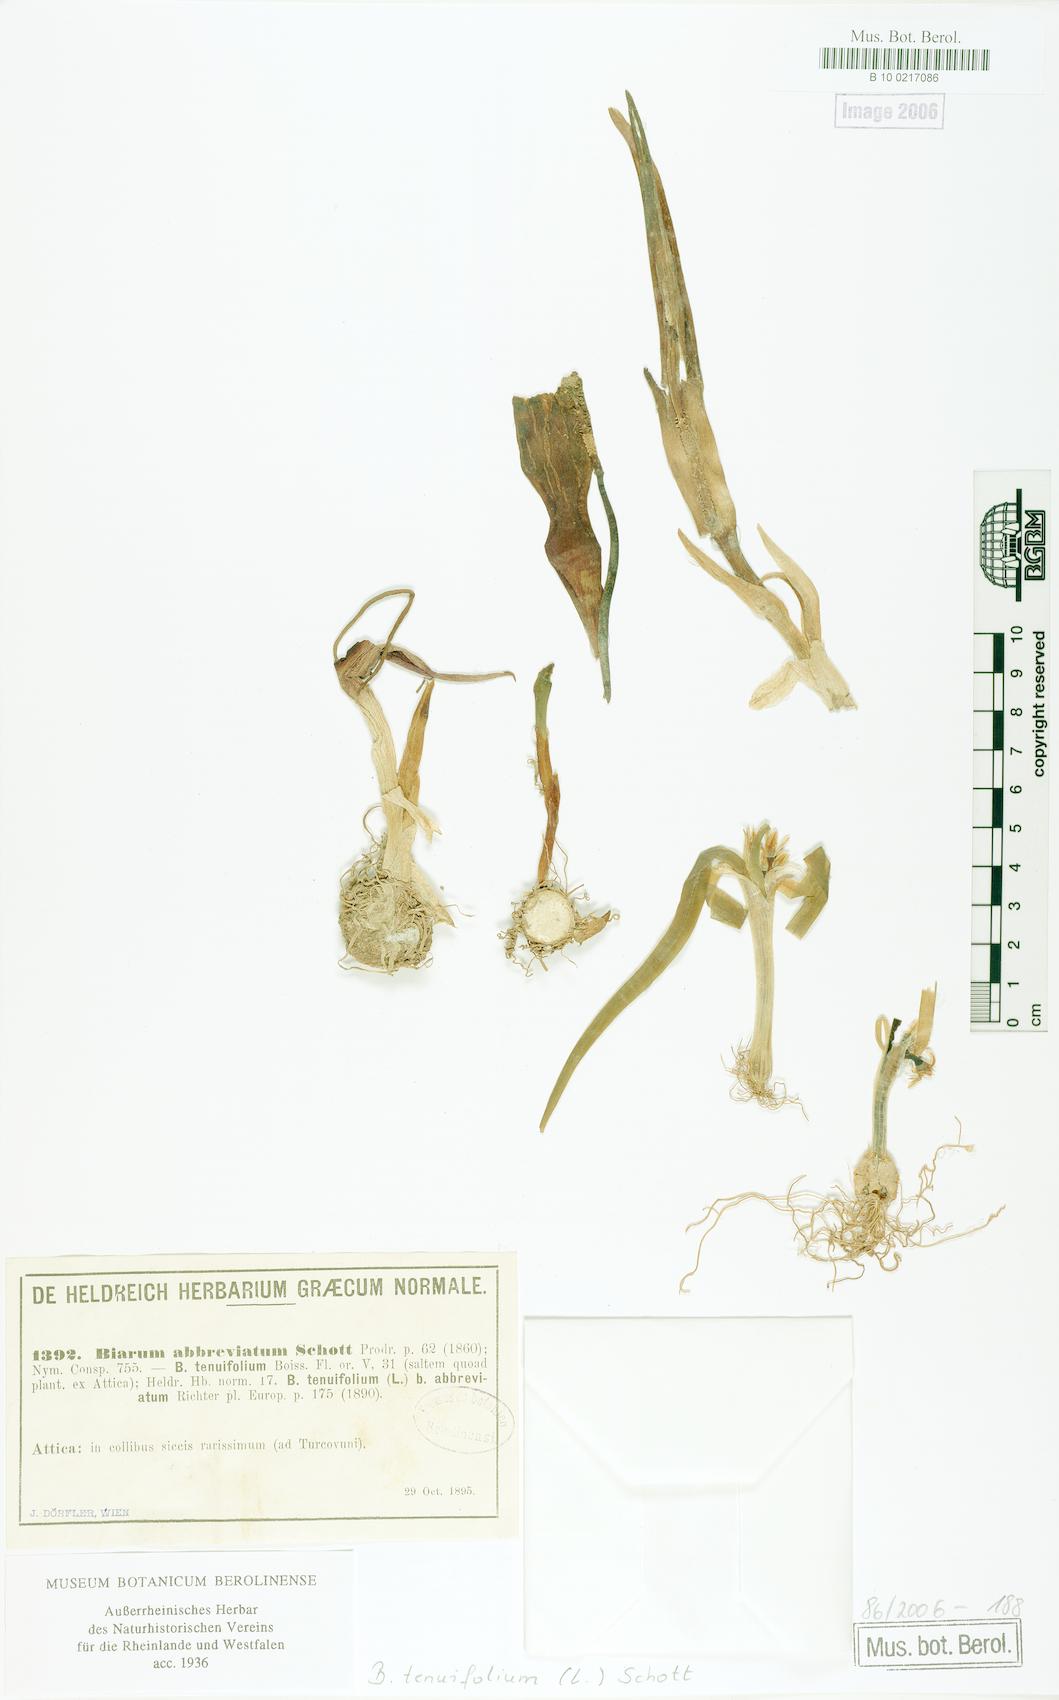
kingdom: Plantae
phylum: Tracheophyta
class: Liliopsida
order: Alismatales
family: Araceae
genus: Biarum
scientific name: Biarum tenuifolium
